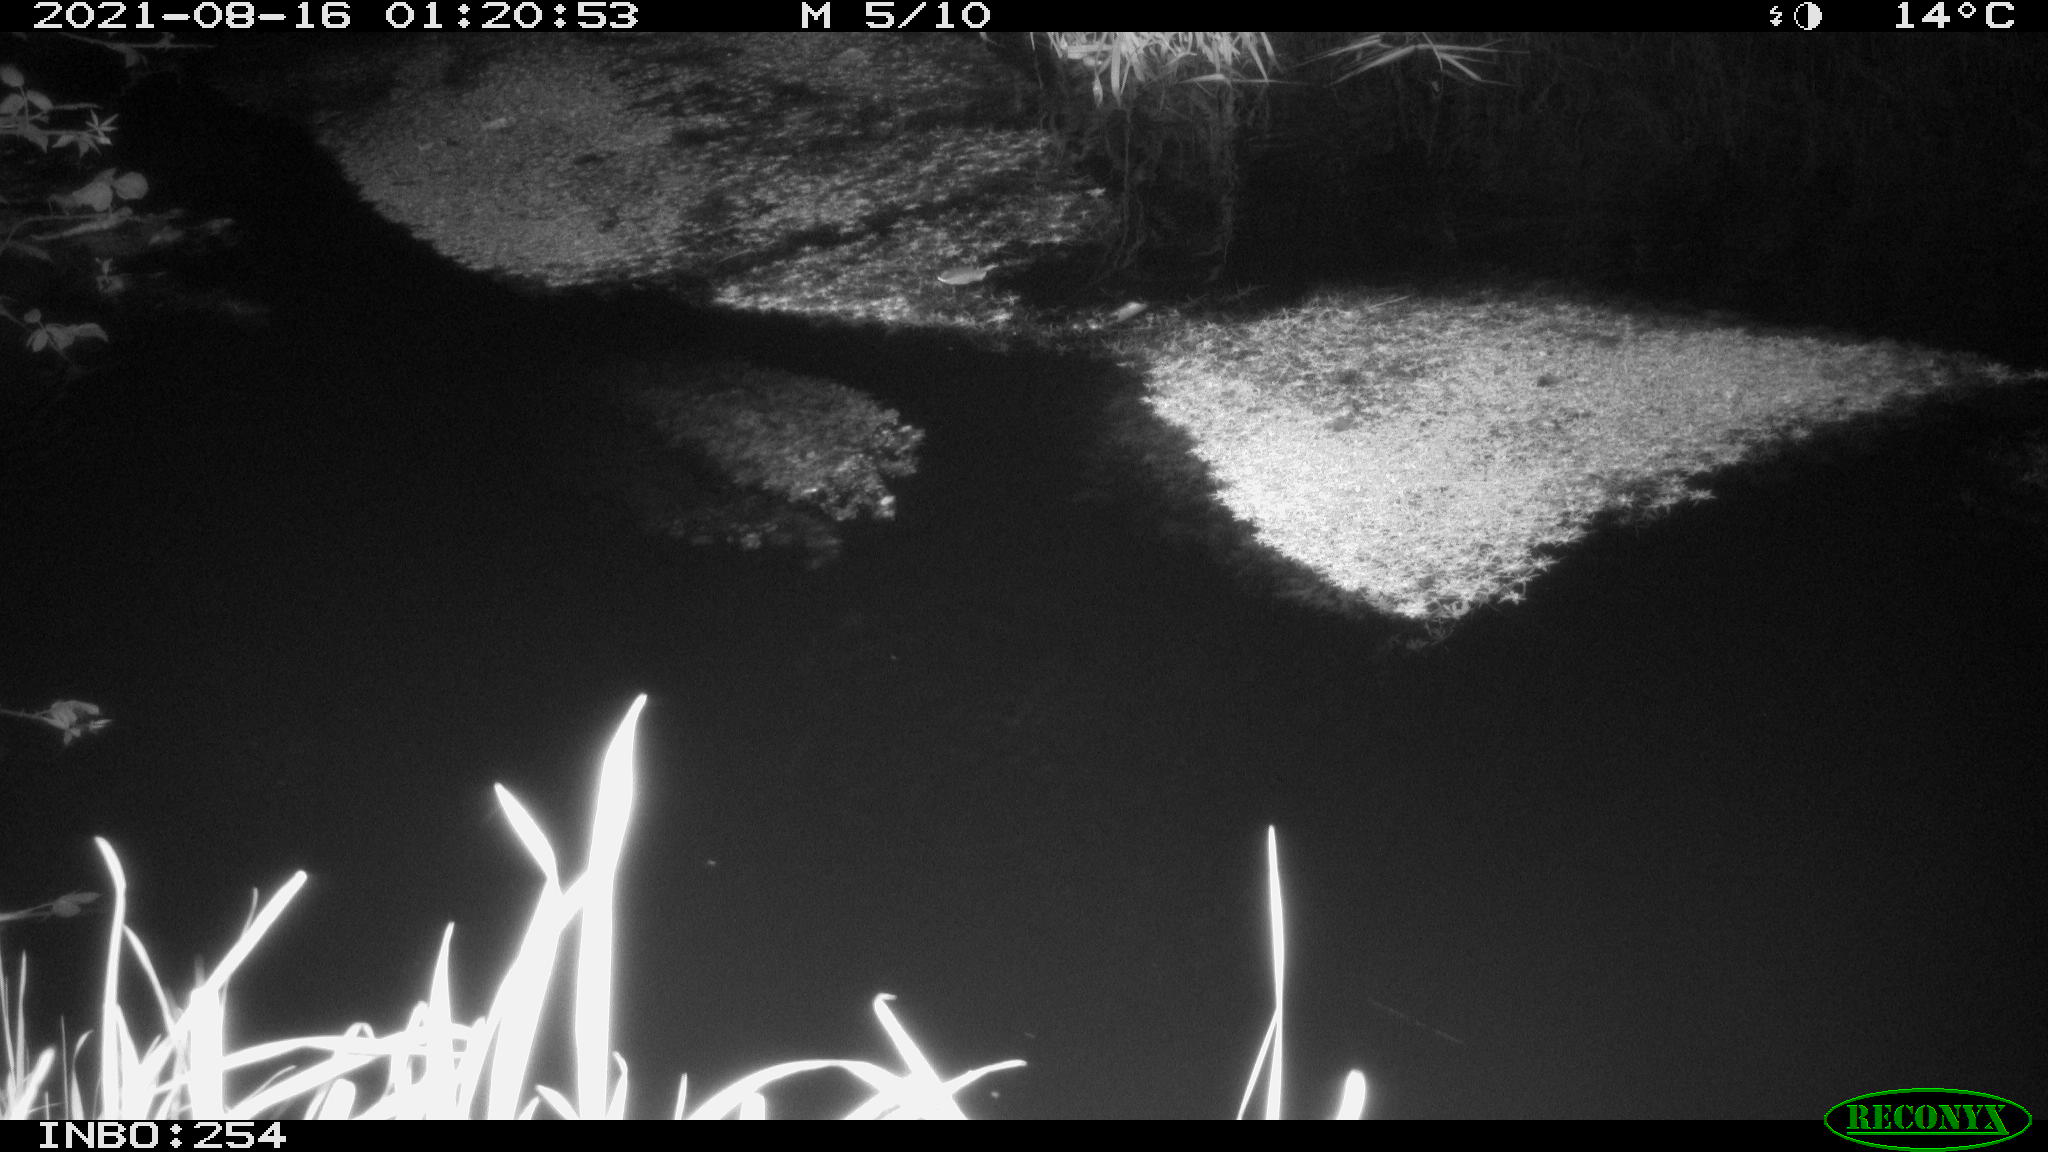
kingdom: Animalia
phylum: Chordata
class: Mammalia
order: Rodentia
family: Muridae
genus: Rattus
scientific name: Rattus norvegicus
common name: Brown rat
